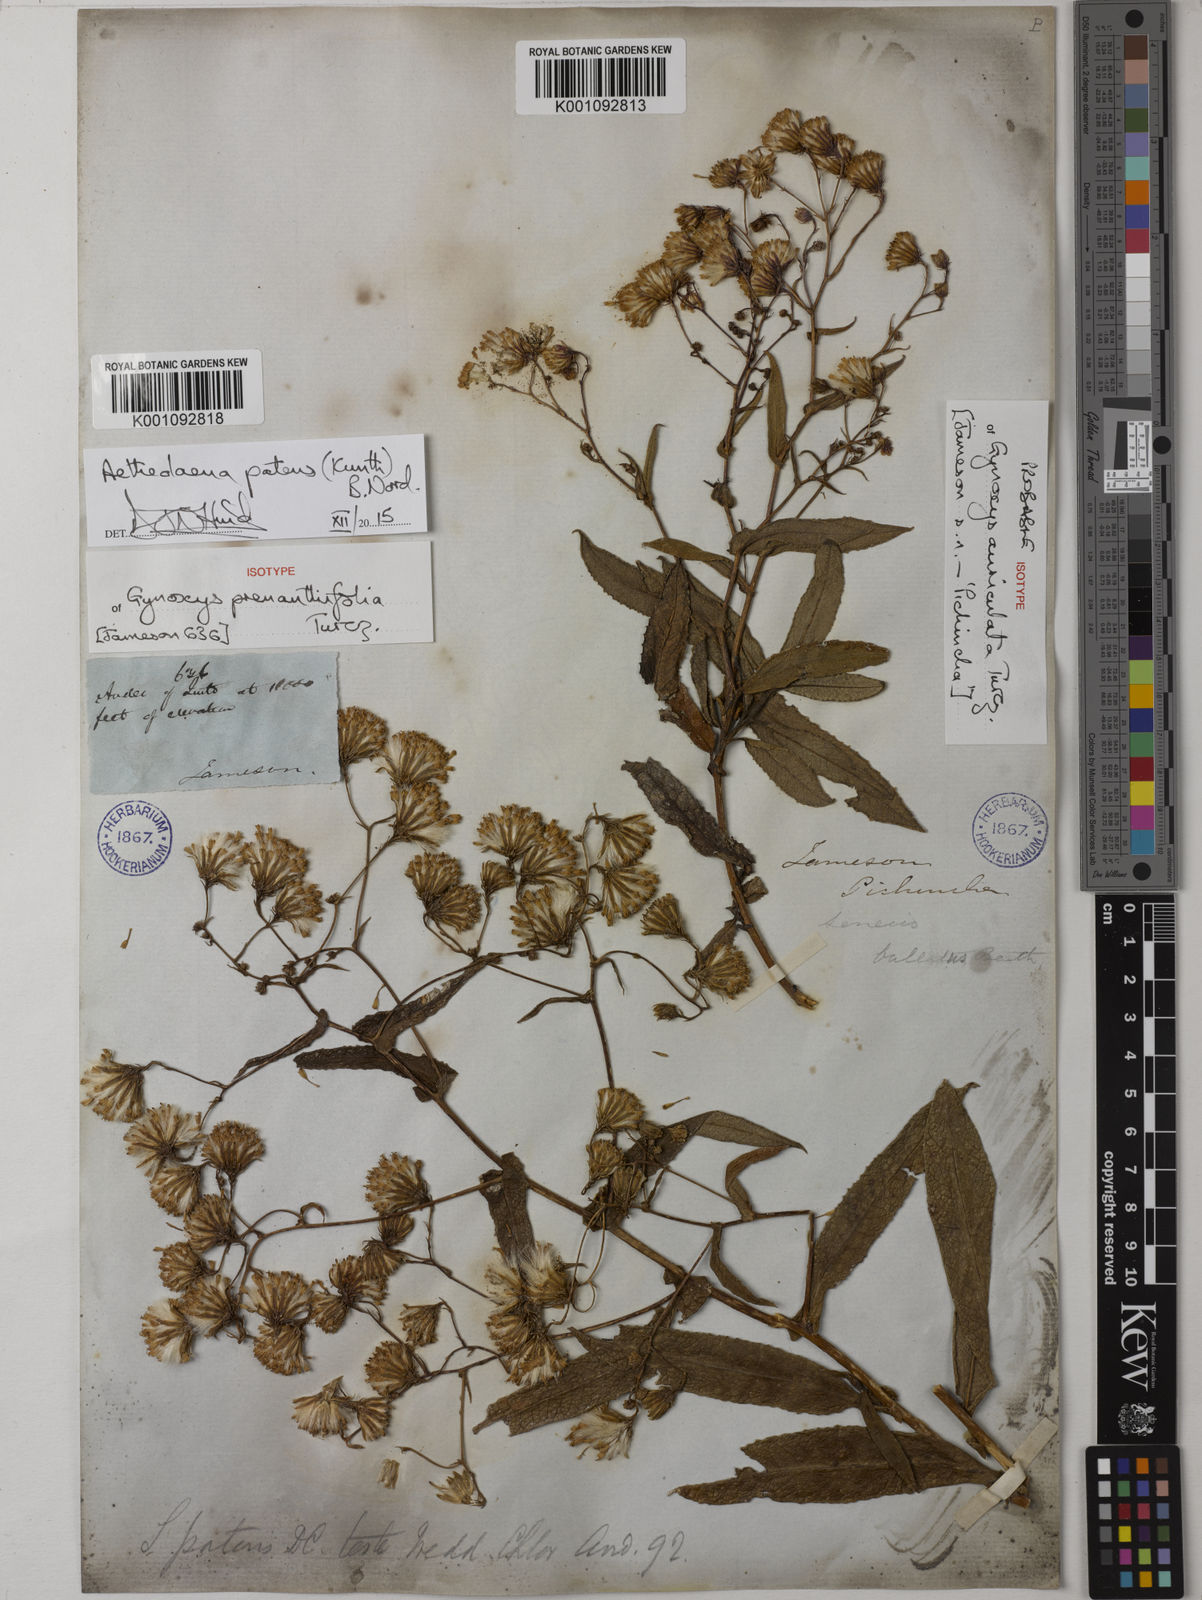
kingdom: Plantae
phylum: Tracheophyta
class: Magnoliopsida
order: Asterales
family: Asteraceae
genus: Aetheolaena
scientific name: Aetheolaena patens
